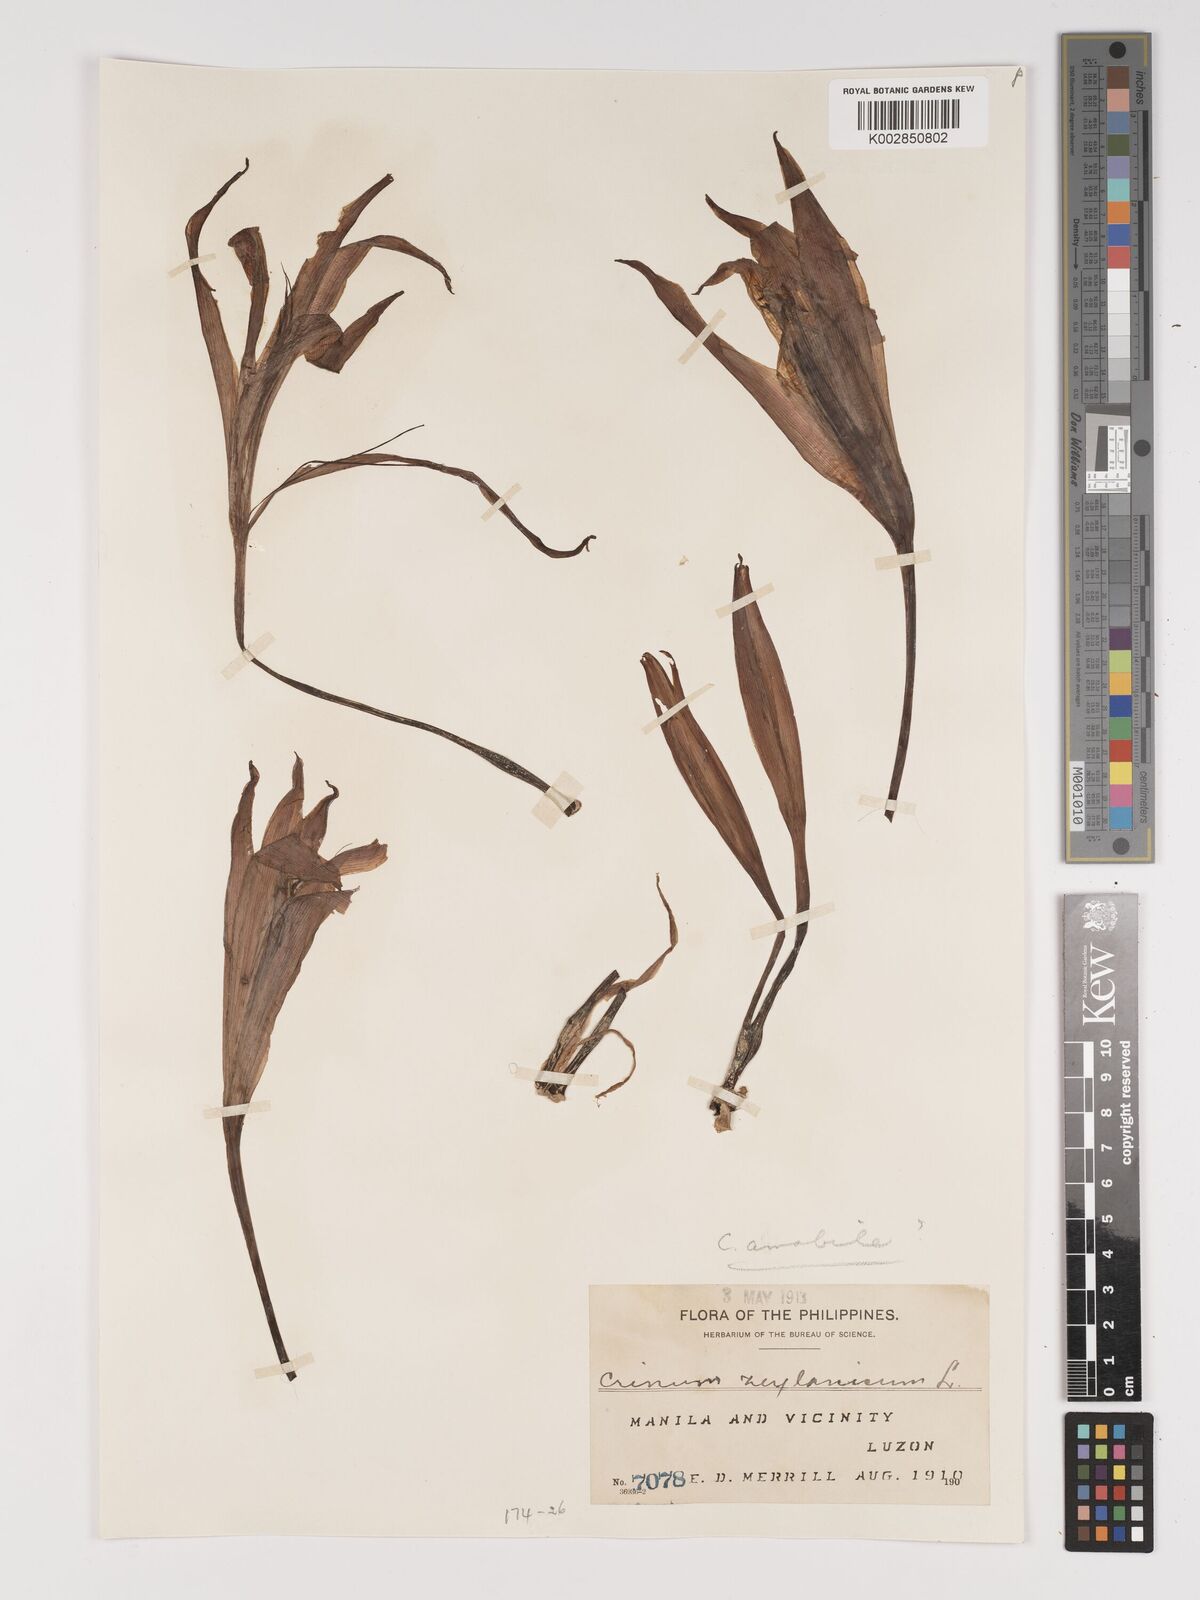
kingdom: Plantae
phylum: Tracheophyta
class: Liliopsida
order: Asparagales
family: Amaryllidaceae
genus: Crinum
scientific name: Crinum
